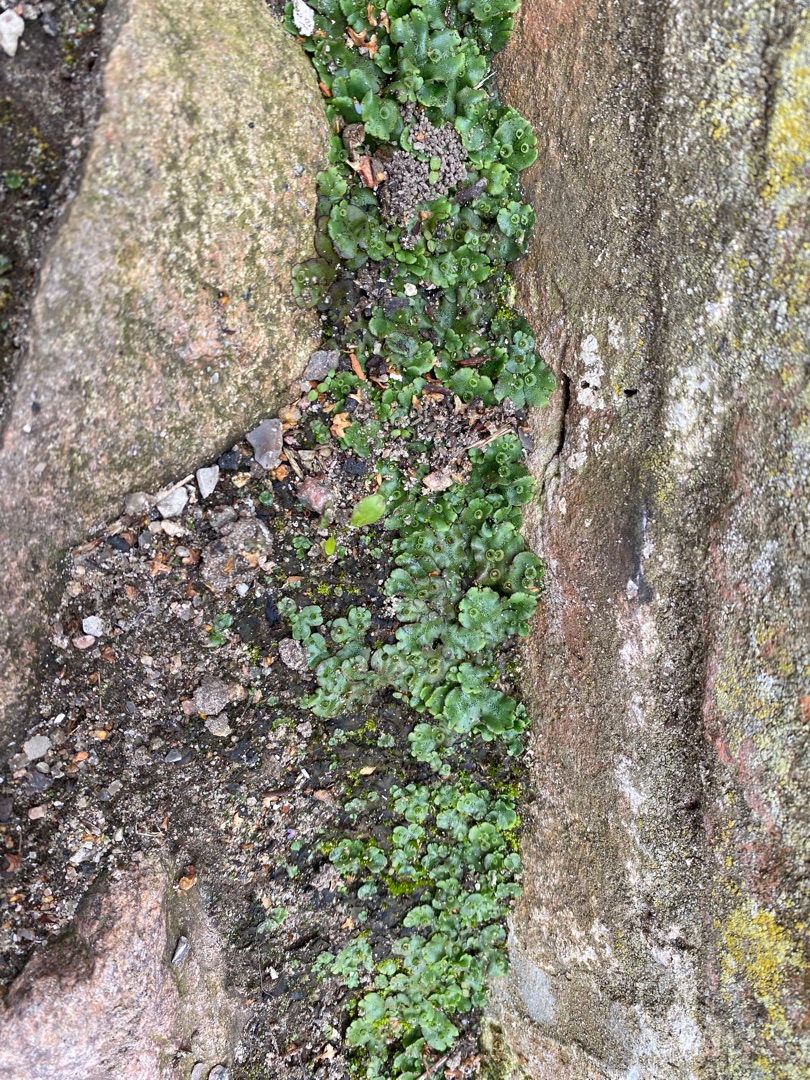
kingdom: Plantae
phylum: Marchantiophyta
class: Marchantiopsida
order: Marchantiales
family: Marchantiaceae
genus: Marchantia
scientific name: Marchantia polymorpha
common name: Almindelig lungemos (underart)
